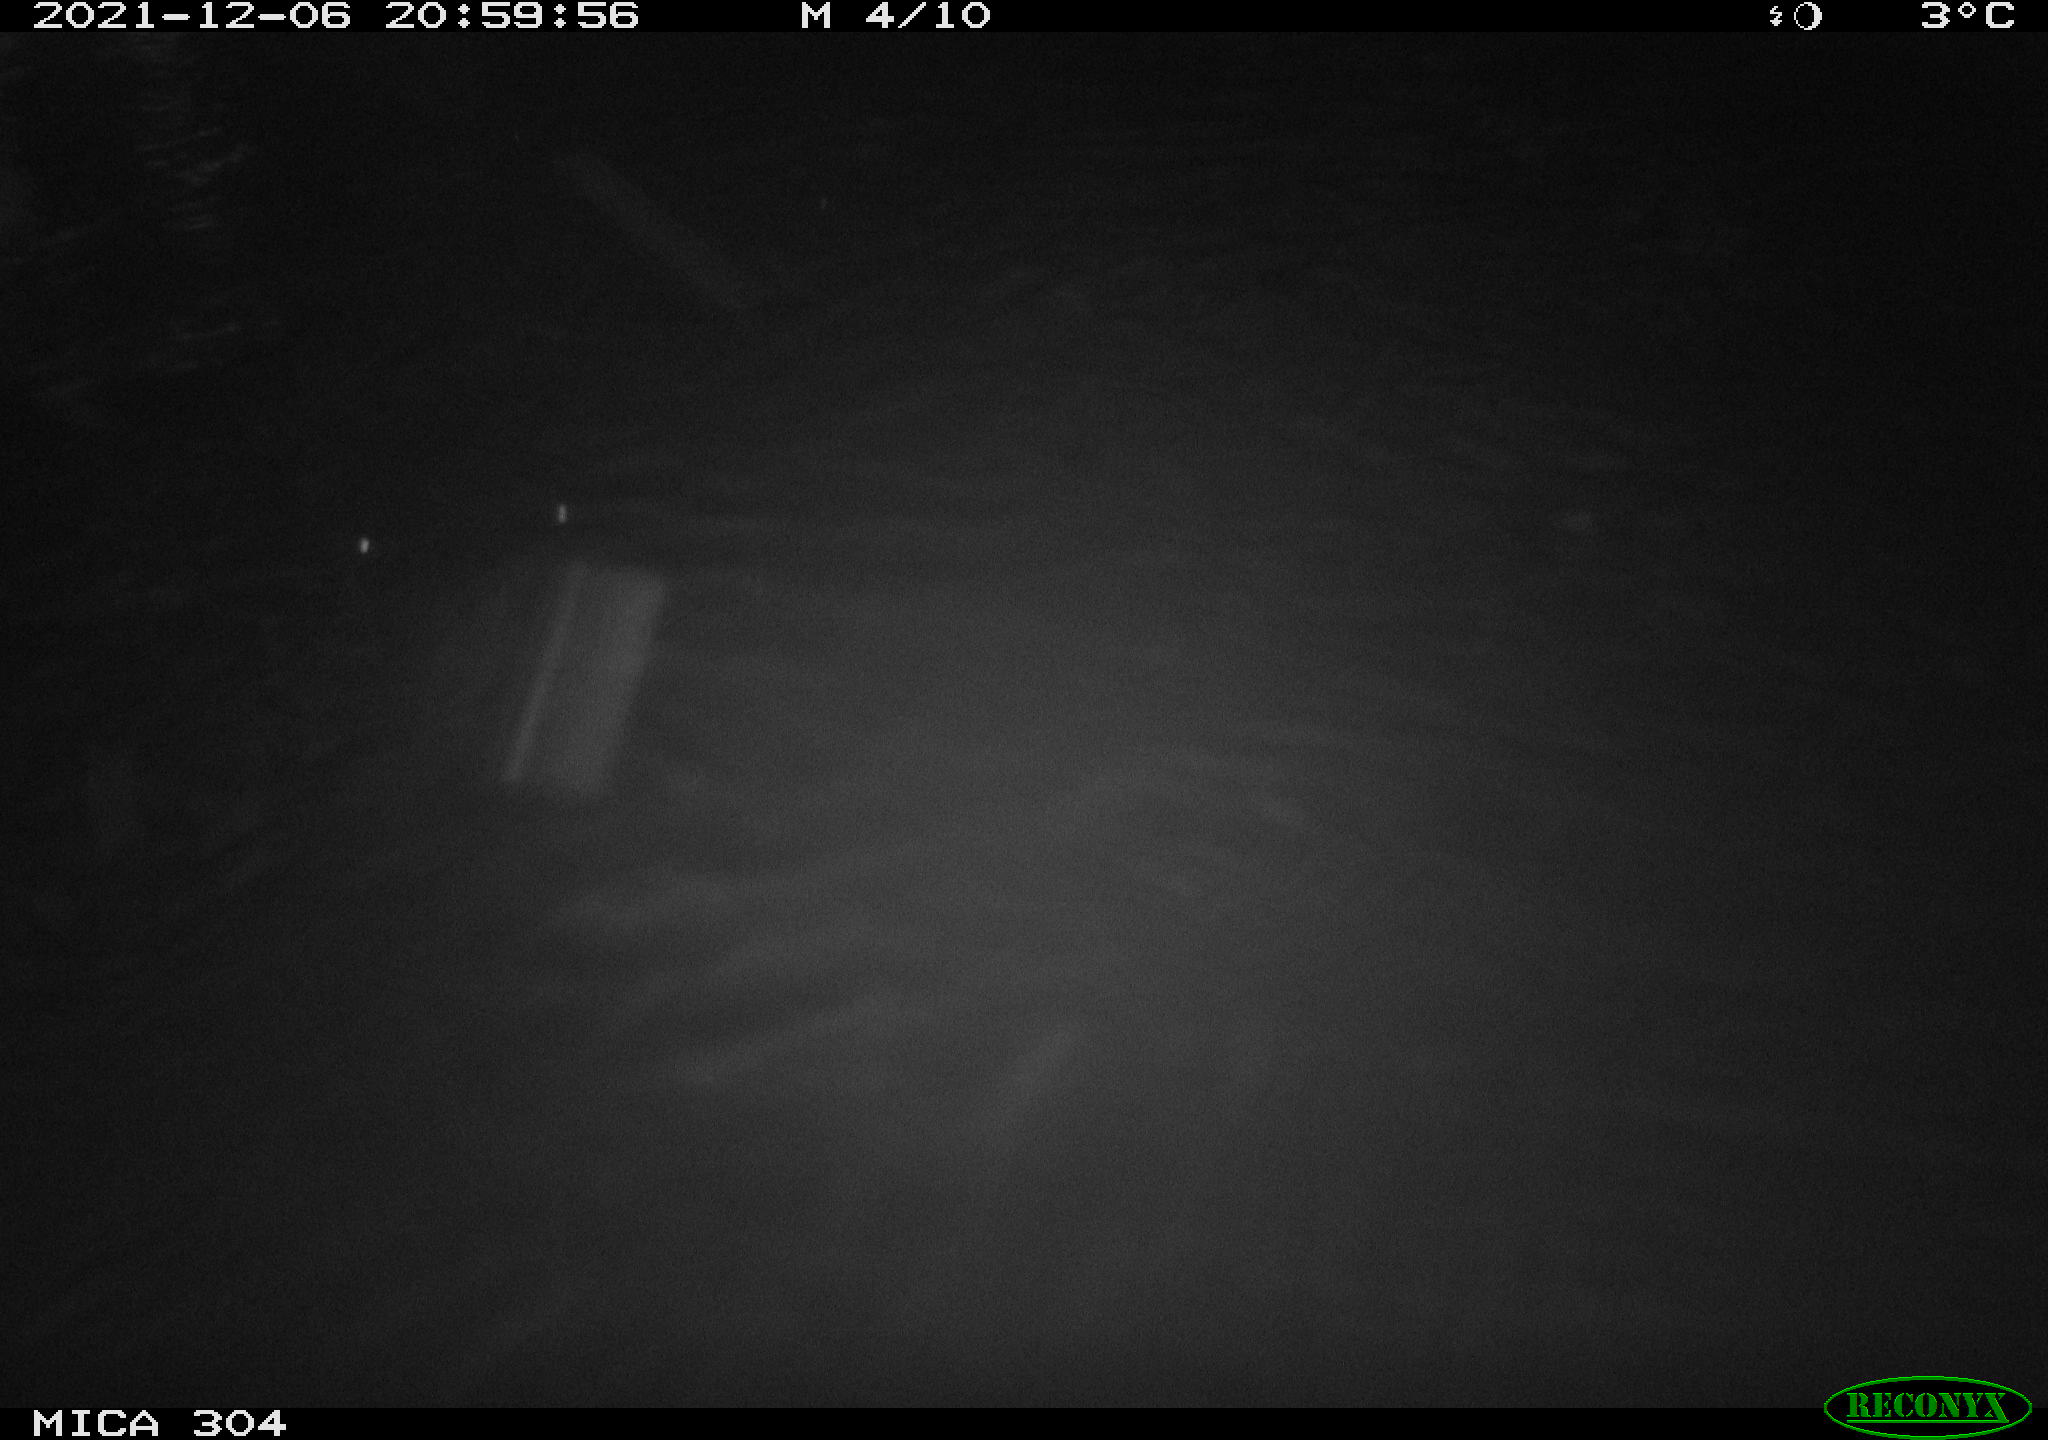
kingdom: Animalia
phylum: Chordata
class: Mammalia
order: Rodentia
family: Muridae
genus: Rattus
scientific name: Rattus norvegicus
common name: Brown rat
